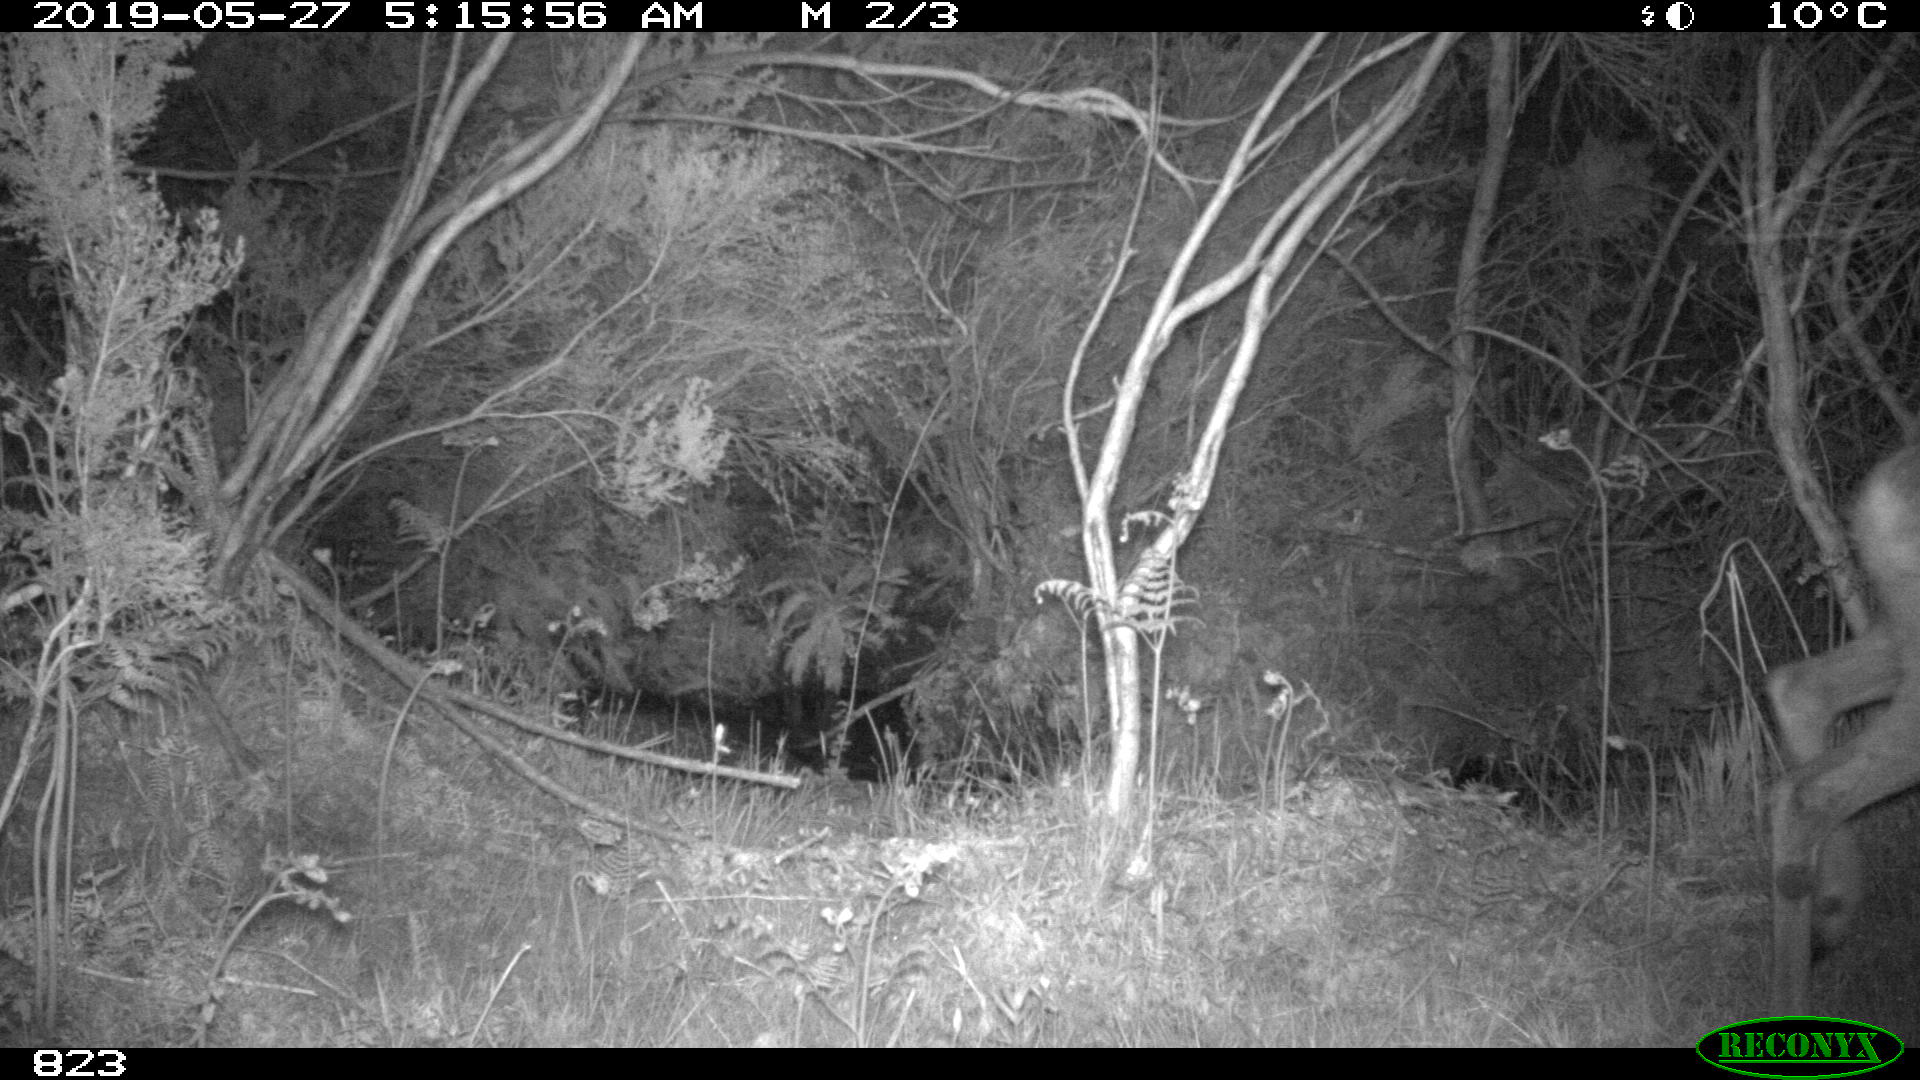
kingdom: Animalia
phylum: Chordata
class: Mammalia
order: Artiodactyla
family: Cervidae
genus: Capreolus
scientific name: Capreolus capreolus
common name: Western roe deer
